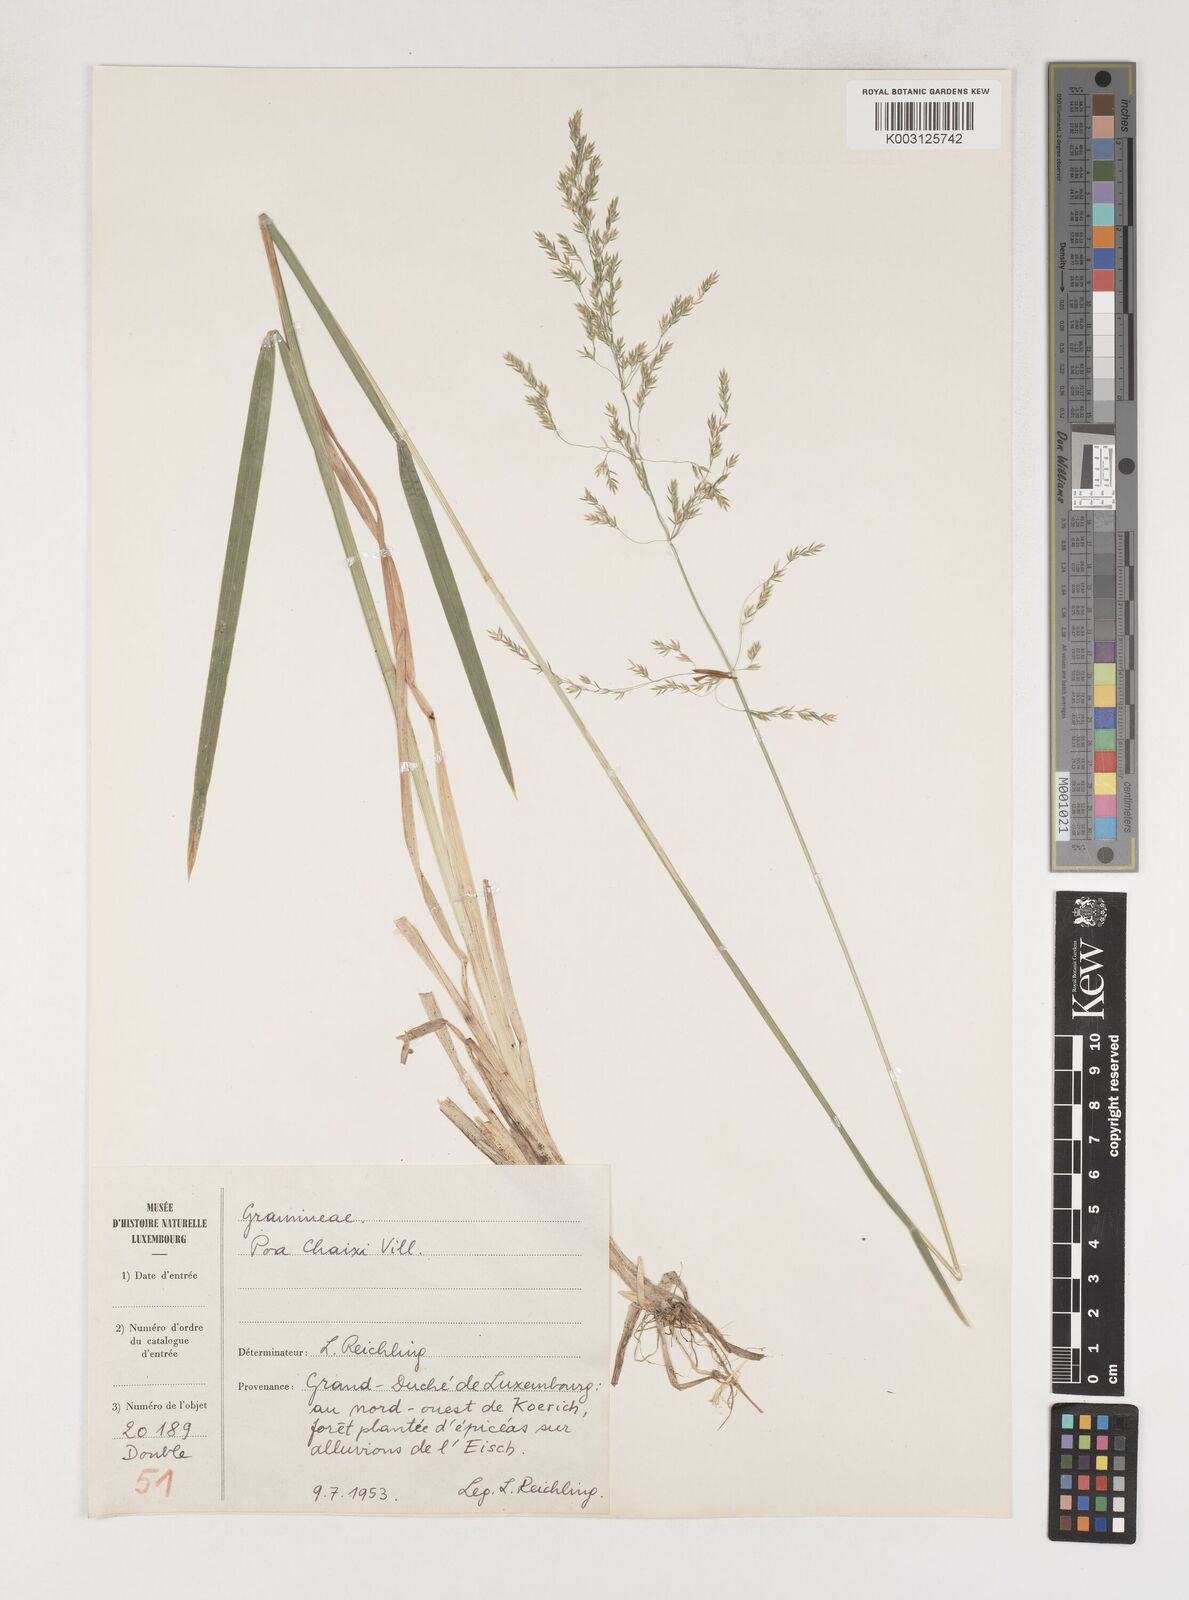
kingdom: Plantae
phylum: Tracheophyta
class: Liliopsida
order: Poales
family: Poaceae
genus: Poa
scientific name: Poa chaixii
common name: Broad-leaved meadow-grass
